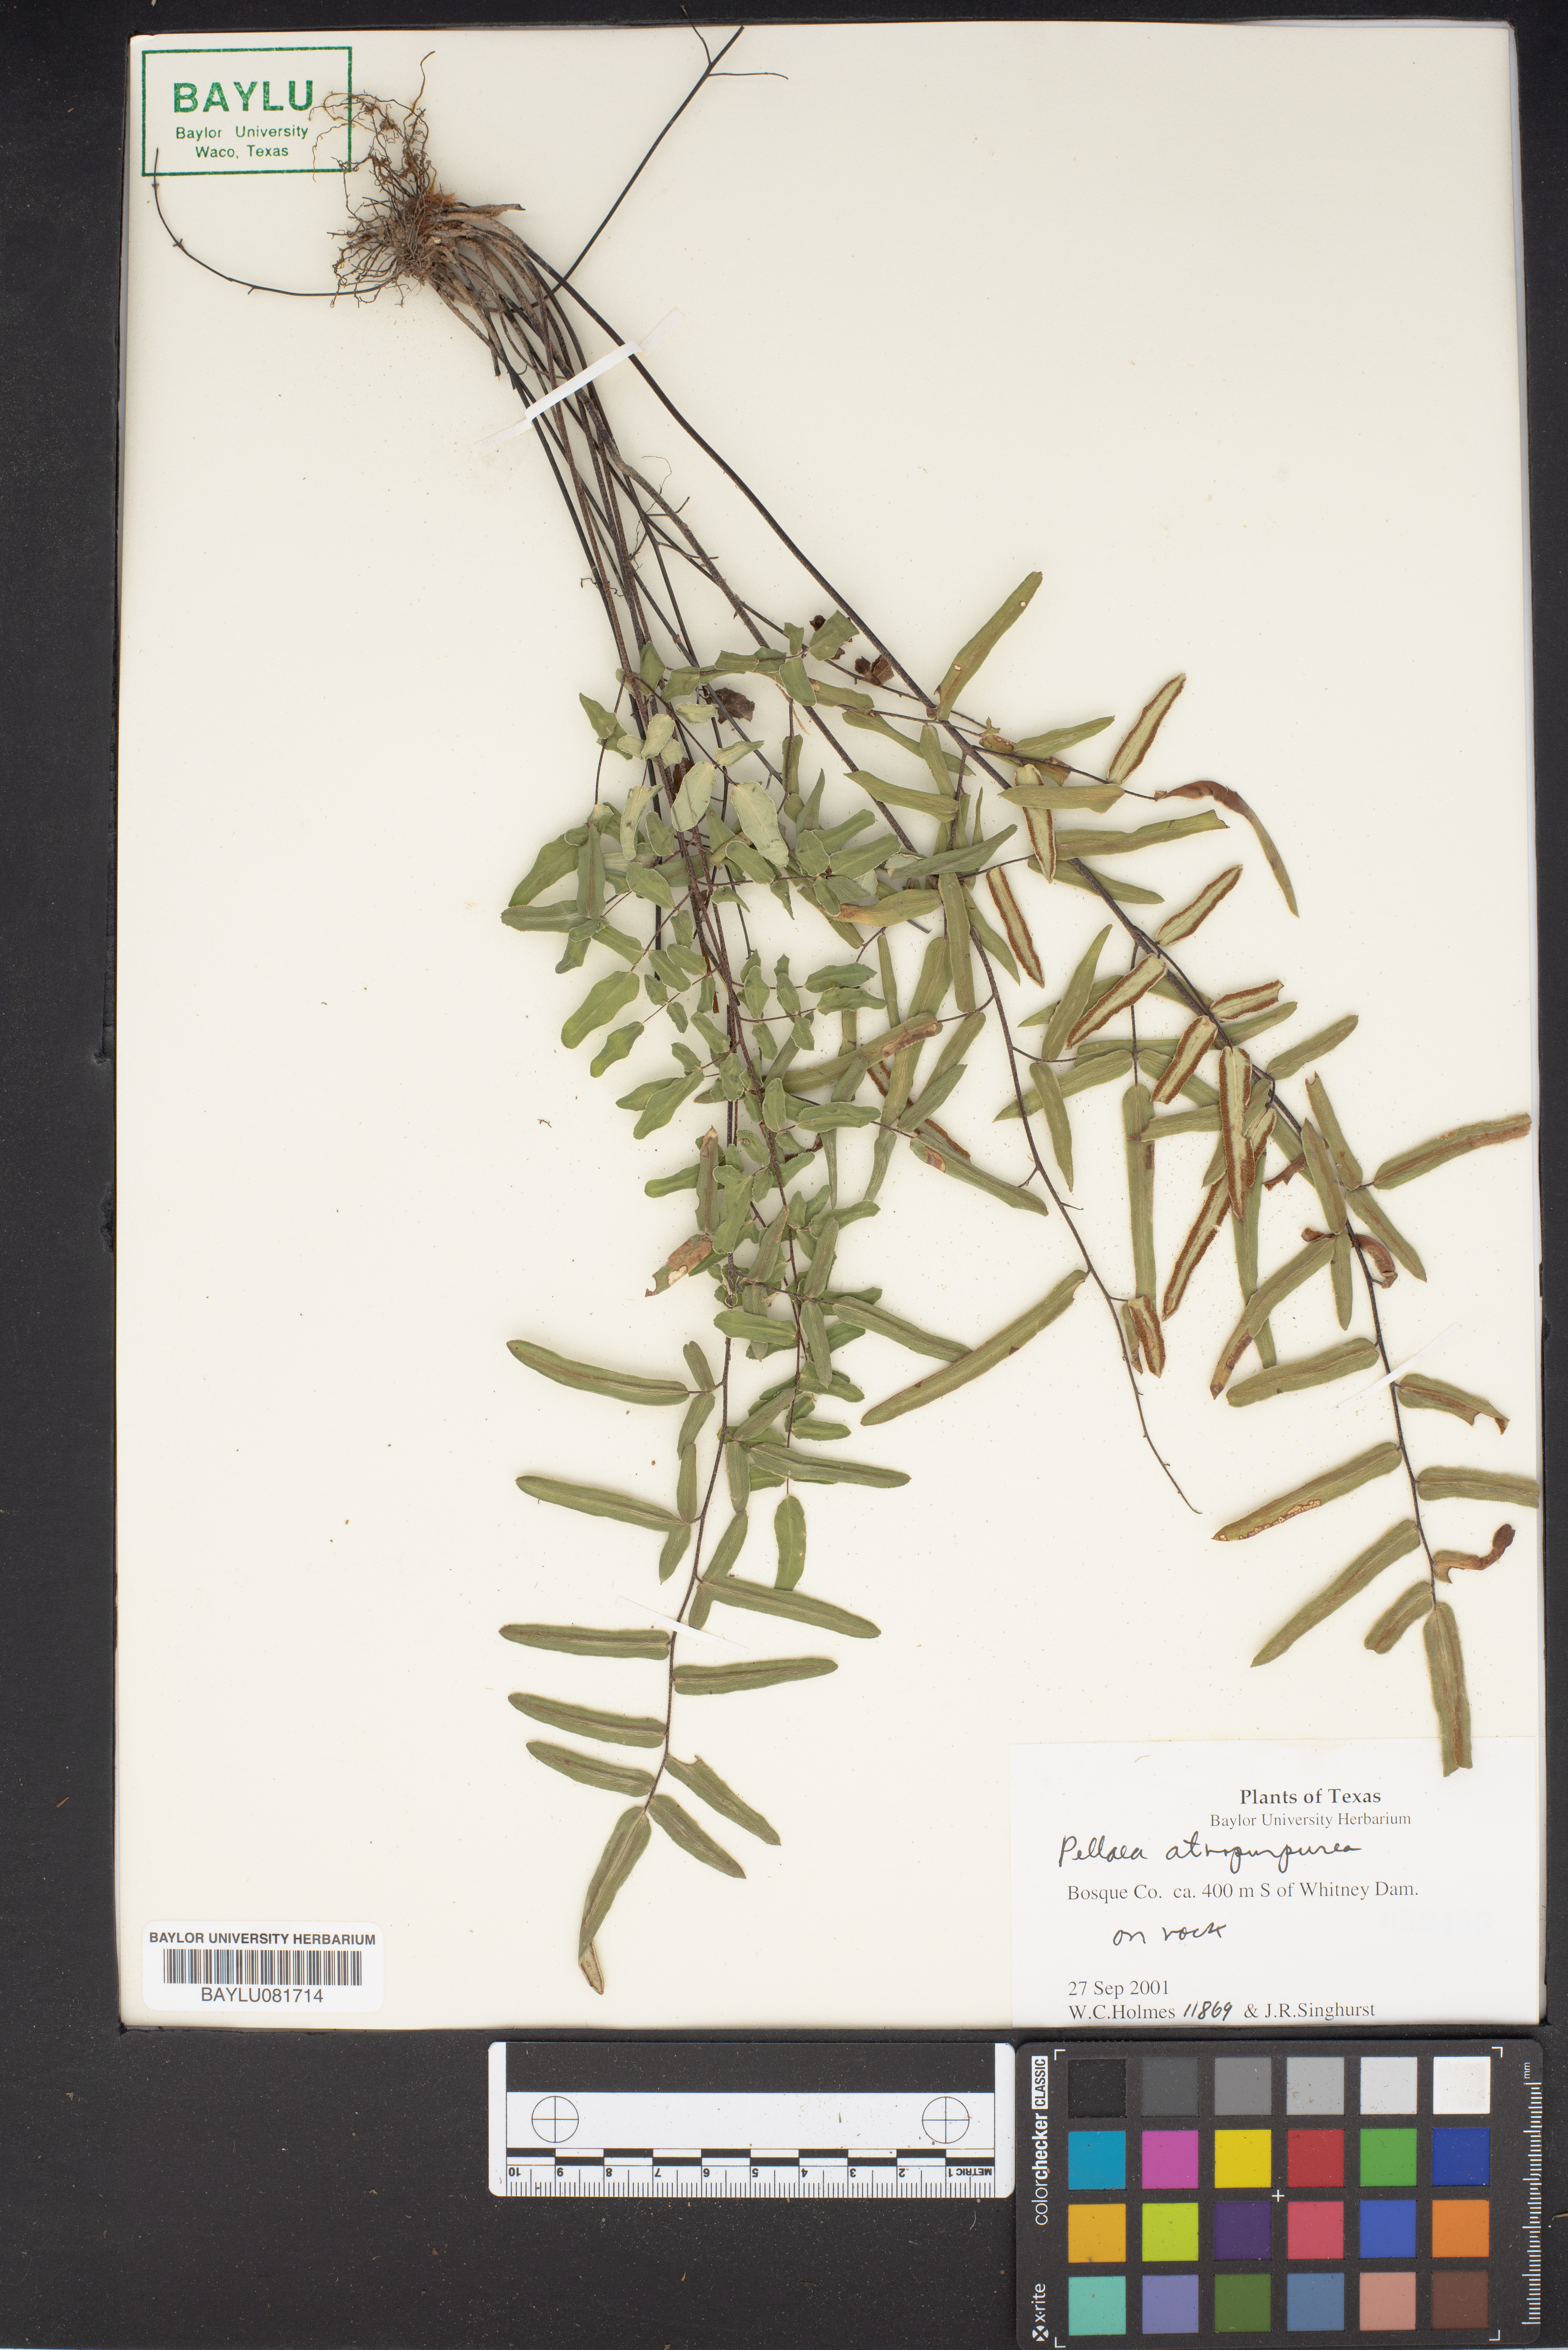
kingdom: Plantae
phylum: Tracheophyta
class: Polypodiopsida
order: Polypodiales
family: Pteridaceae
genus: Pellaea
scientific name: Pellaea atropurpurea
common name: Hairy cliffbrake
